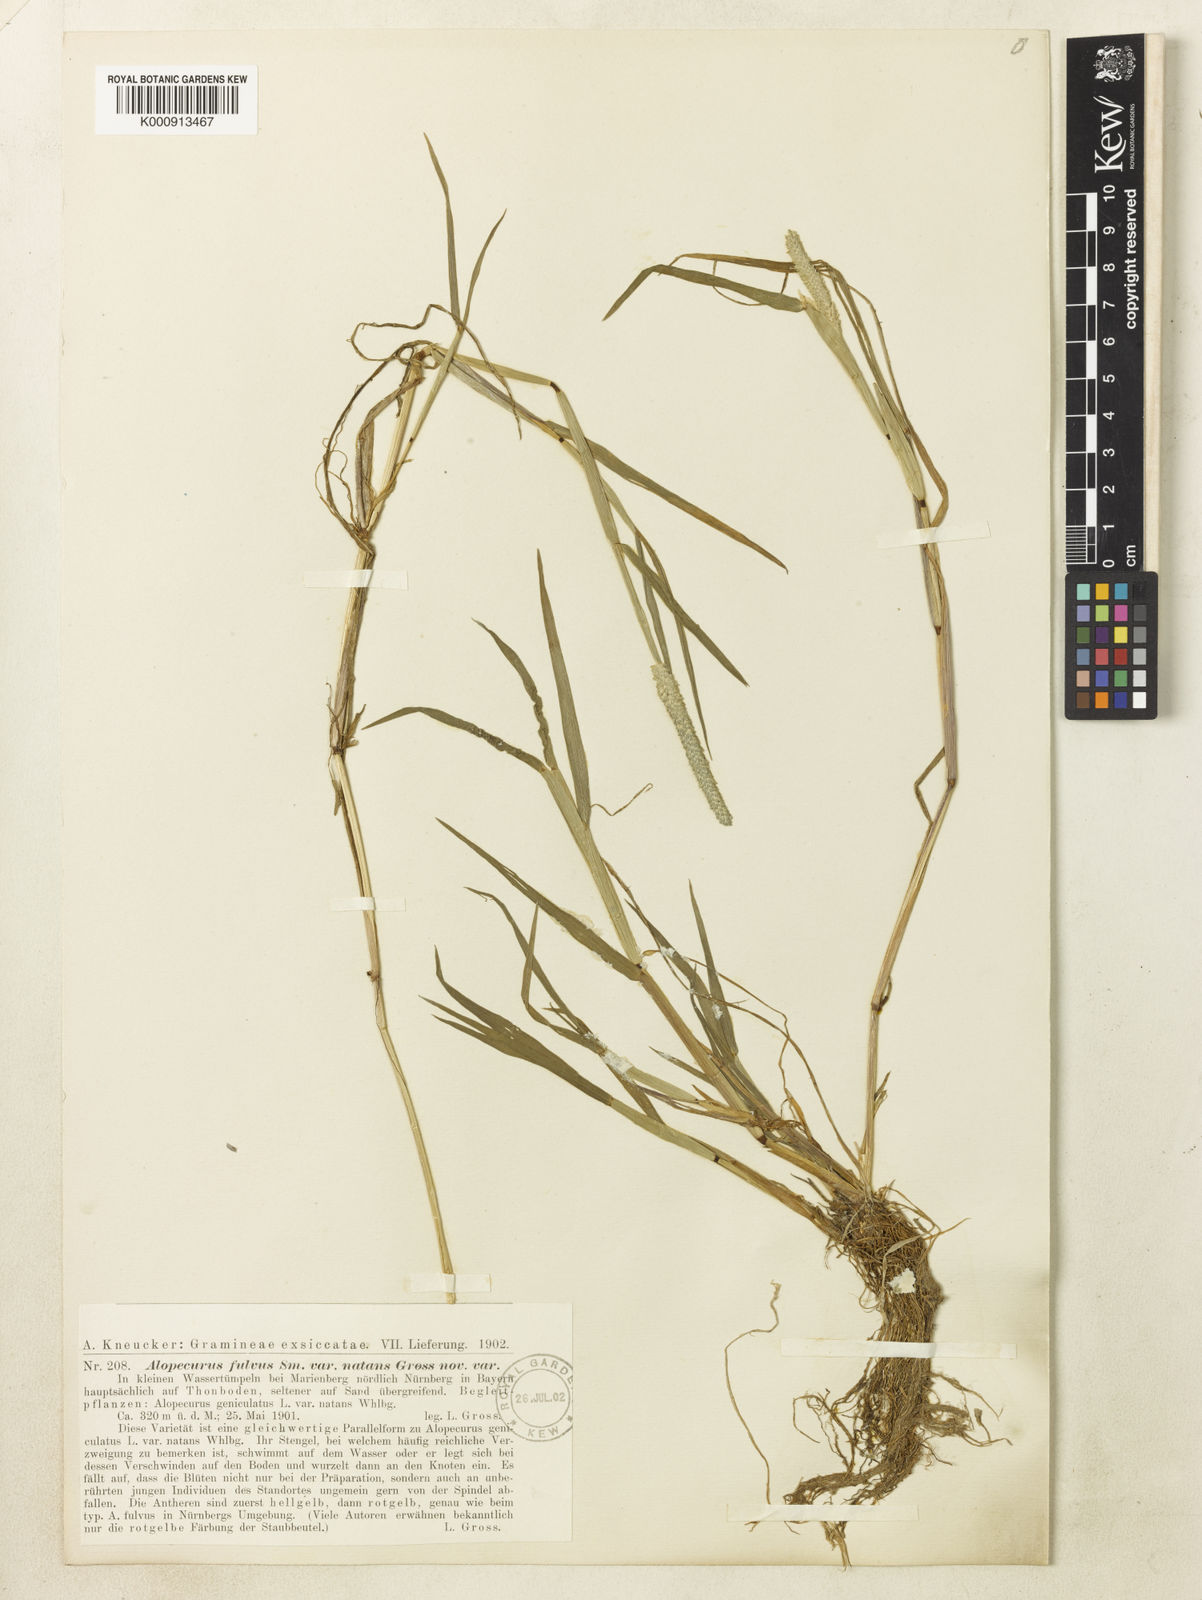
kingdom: Plantae
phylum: Tracheophyta
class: Liliopsida
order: Poales
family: Poaceae
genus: Alopecurus
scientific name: Alopecurus aequalis
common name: Orange foxtail
